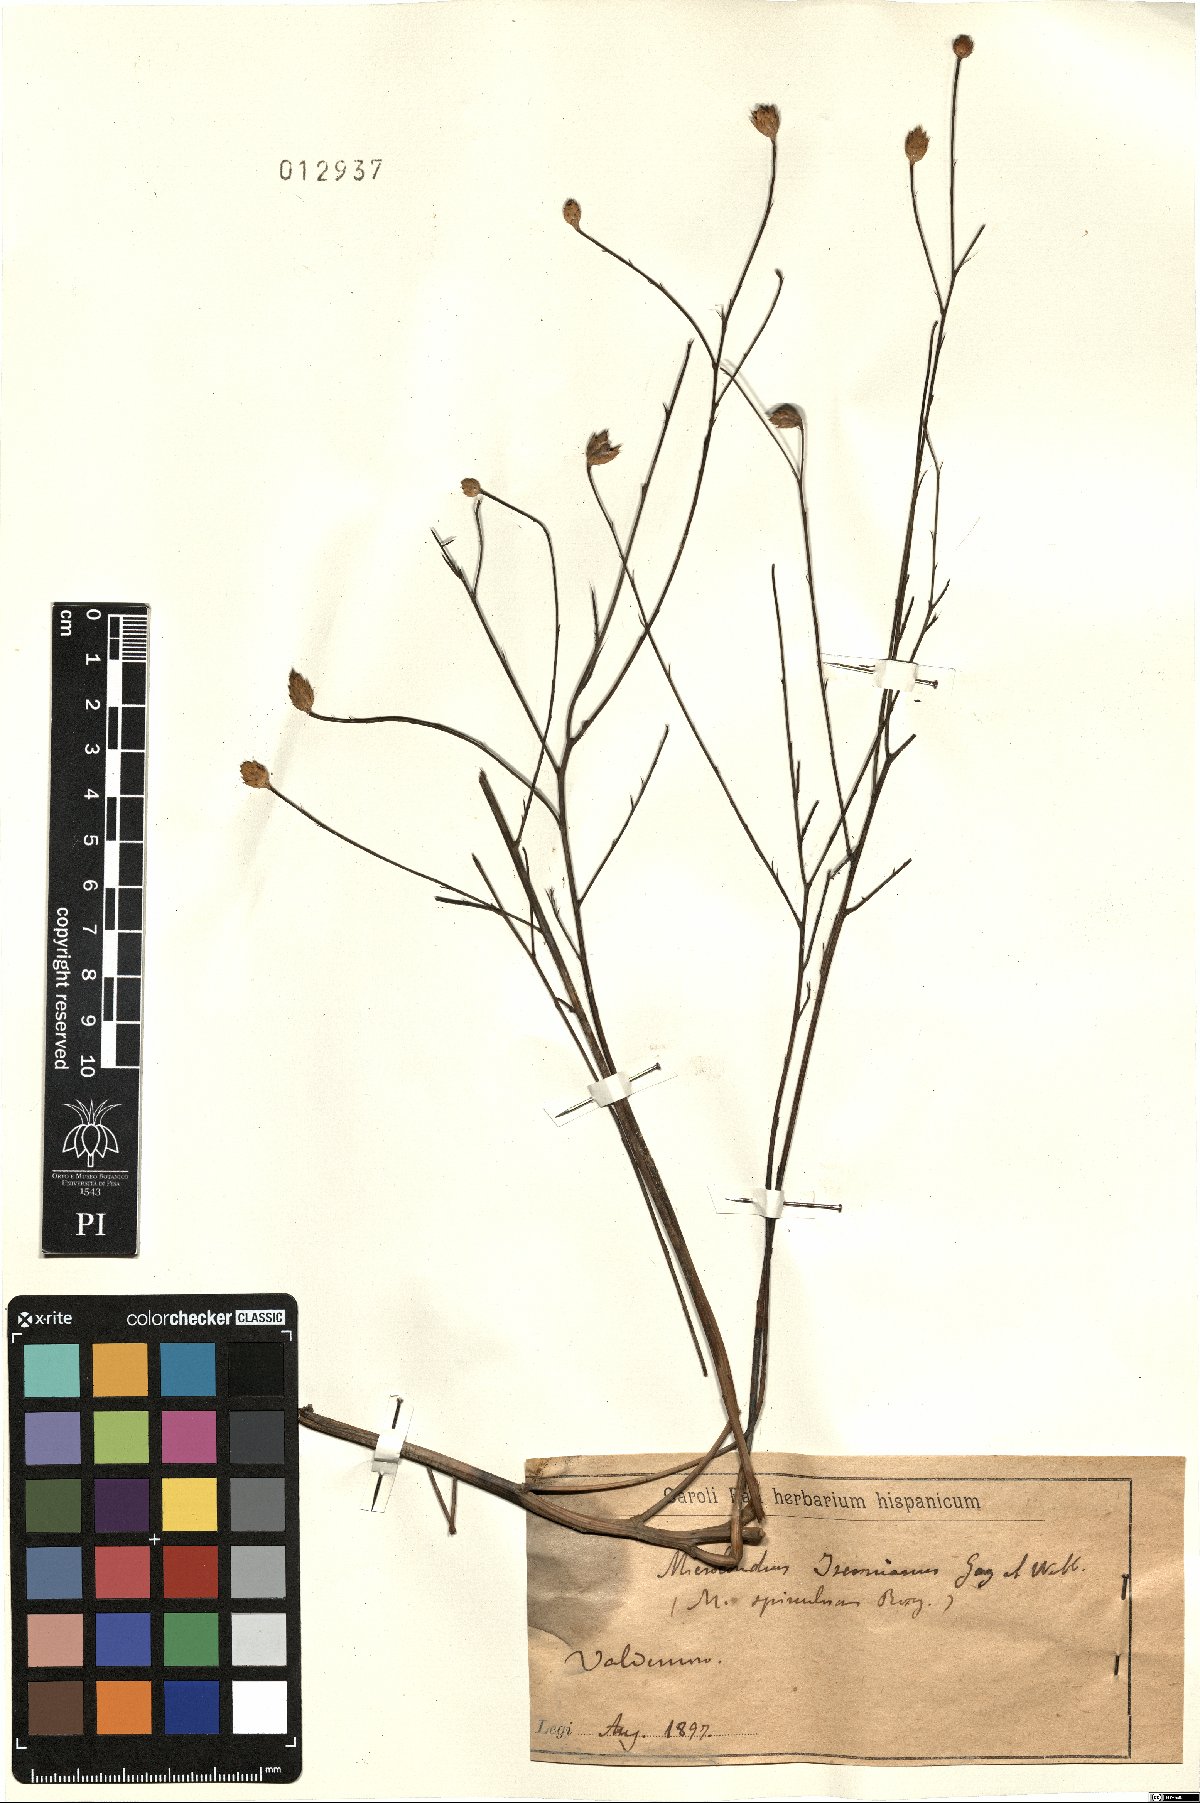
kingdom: Plantae
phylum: Tracheophyta
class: Magnoliopsida
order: Asterales
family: Asteraceae
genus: Centaurea
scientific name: Centaurea janeri
